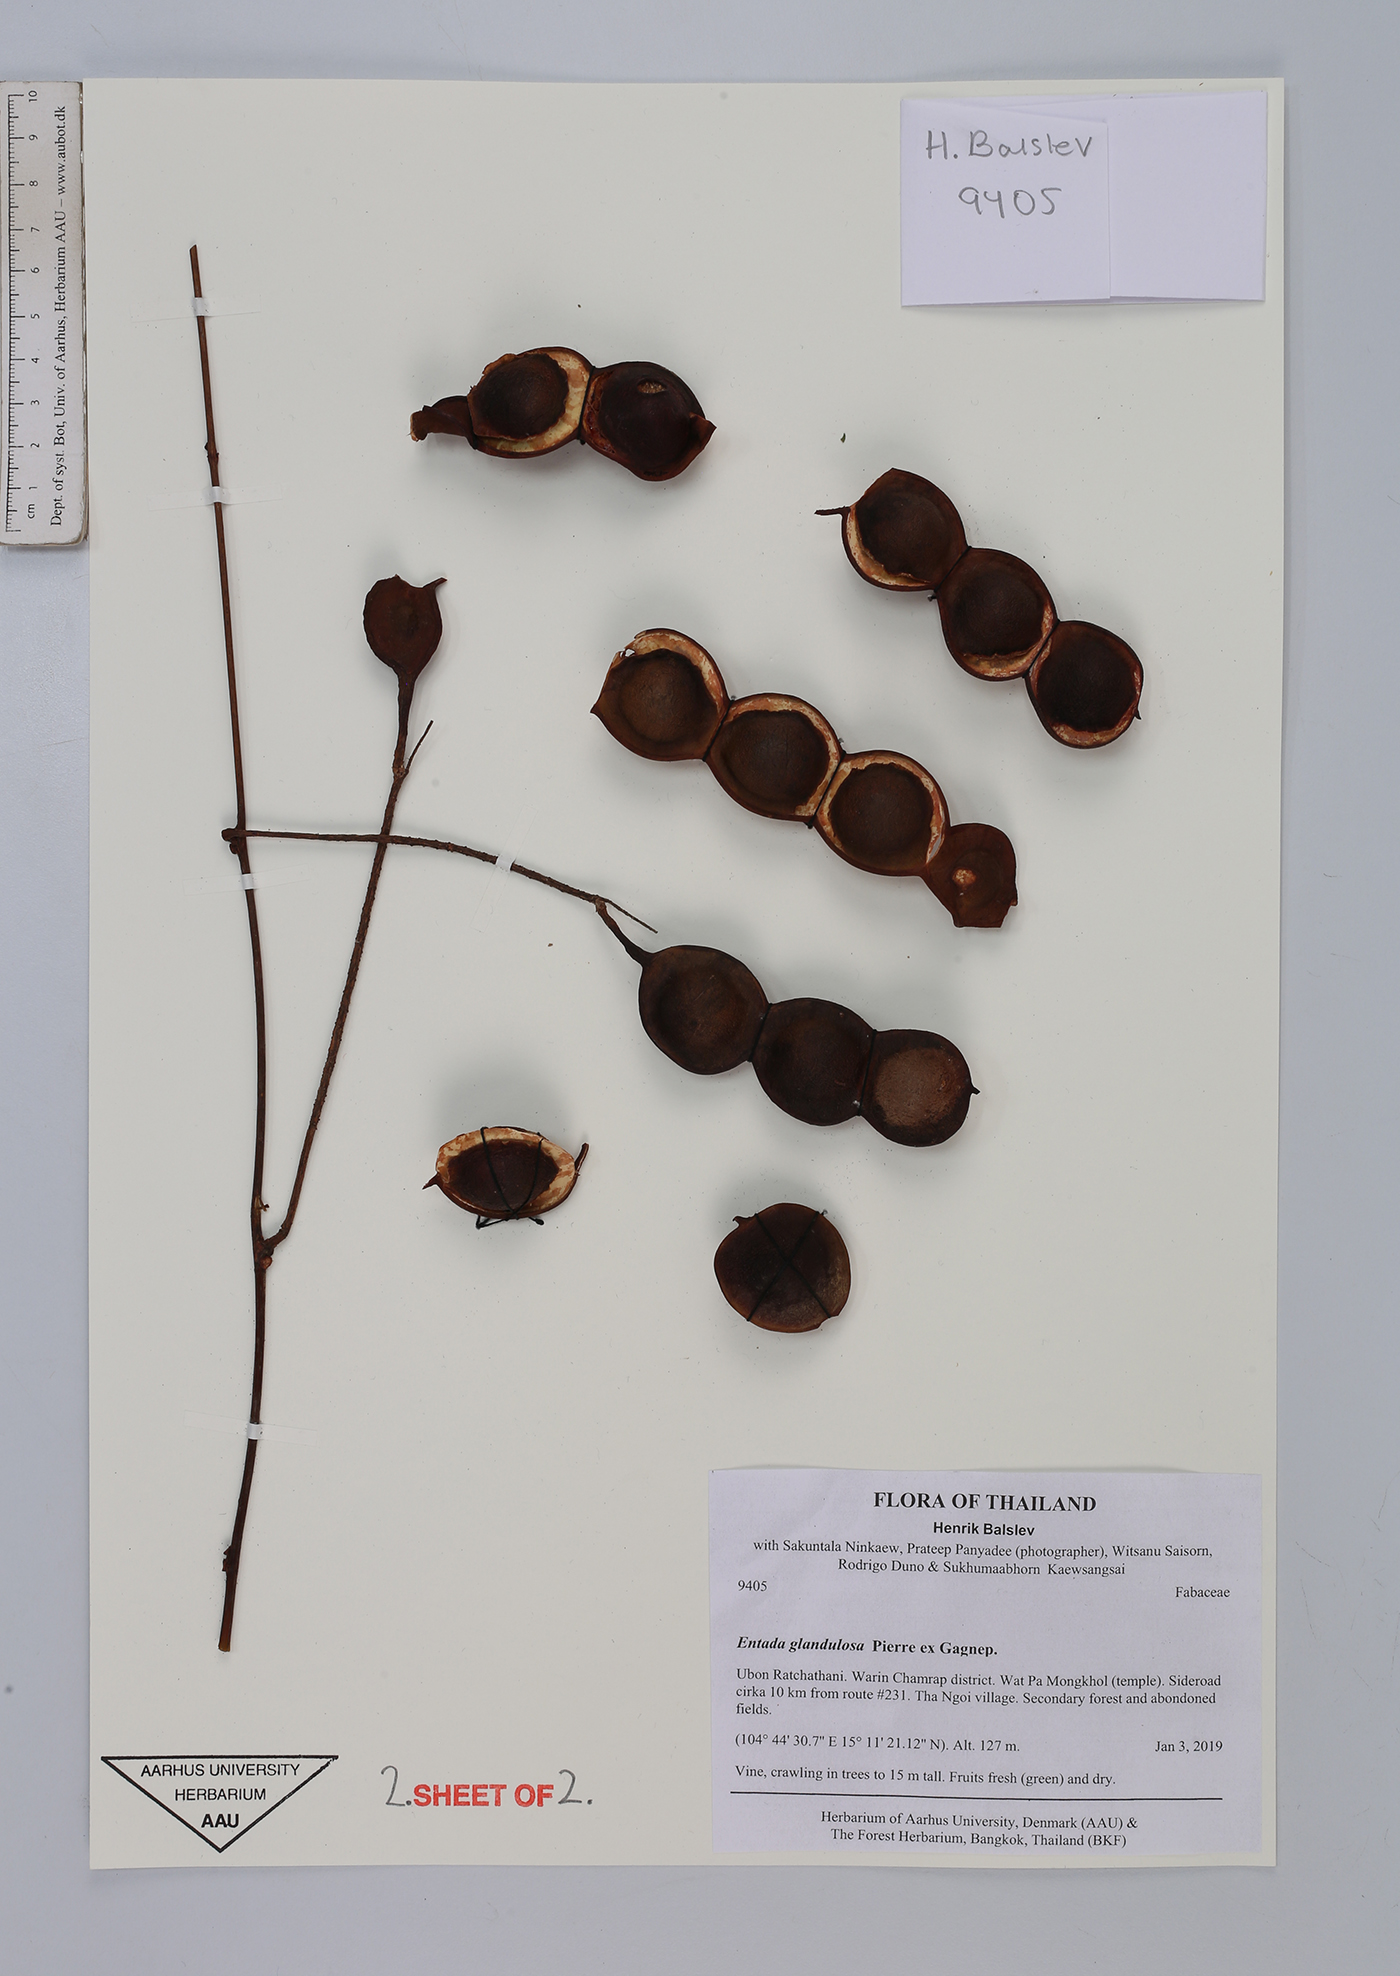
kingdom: Plantae
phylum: Tracheophyta
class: Magnoliopsida
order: Fabales
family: Fabaceae
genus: Entada
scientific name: Entada glandulosa
